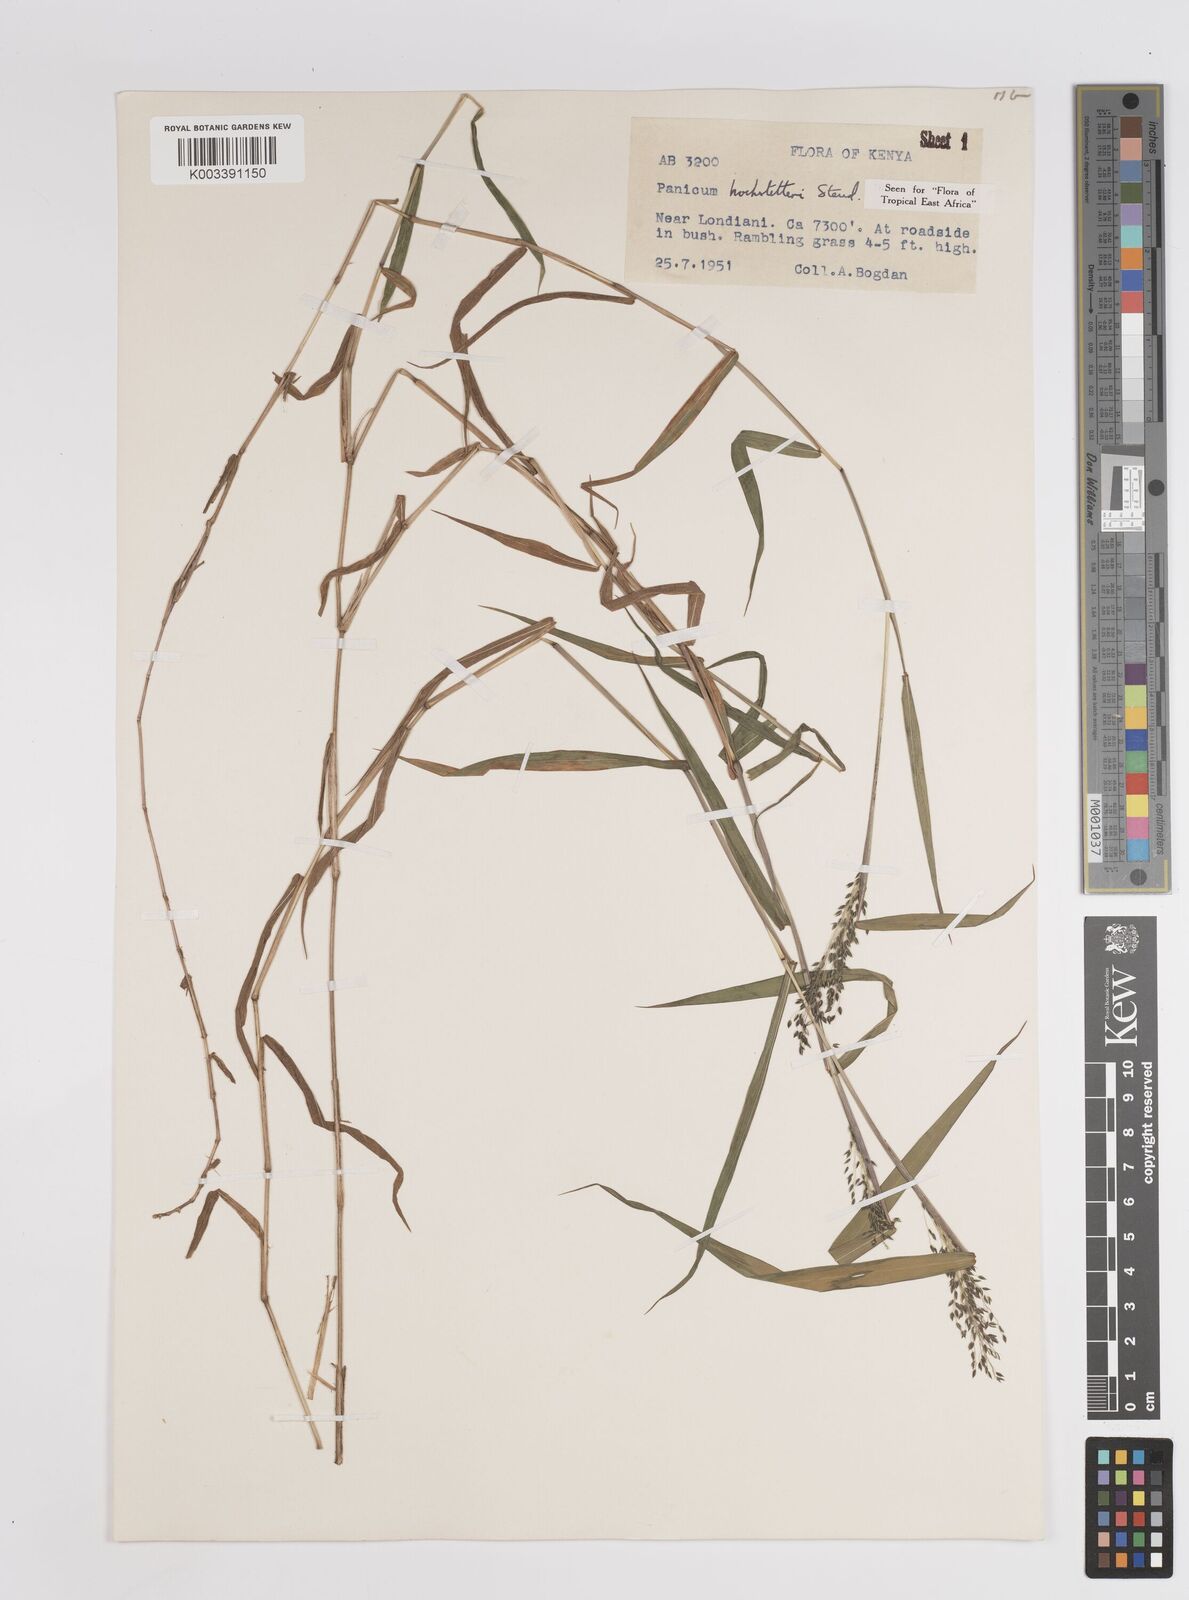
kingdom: Plantae
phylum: Tracheophyta
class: Liliopsida
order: Poales
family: Poaceae
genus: Panicum
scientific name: Panicum hochstetteri
